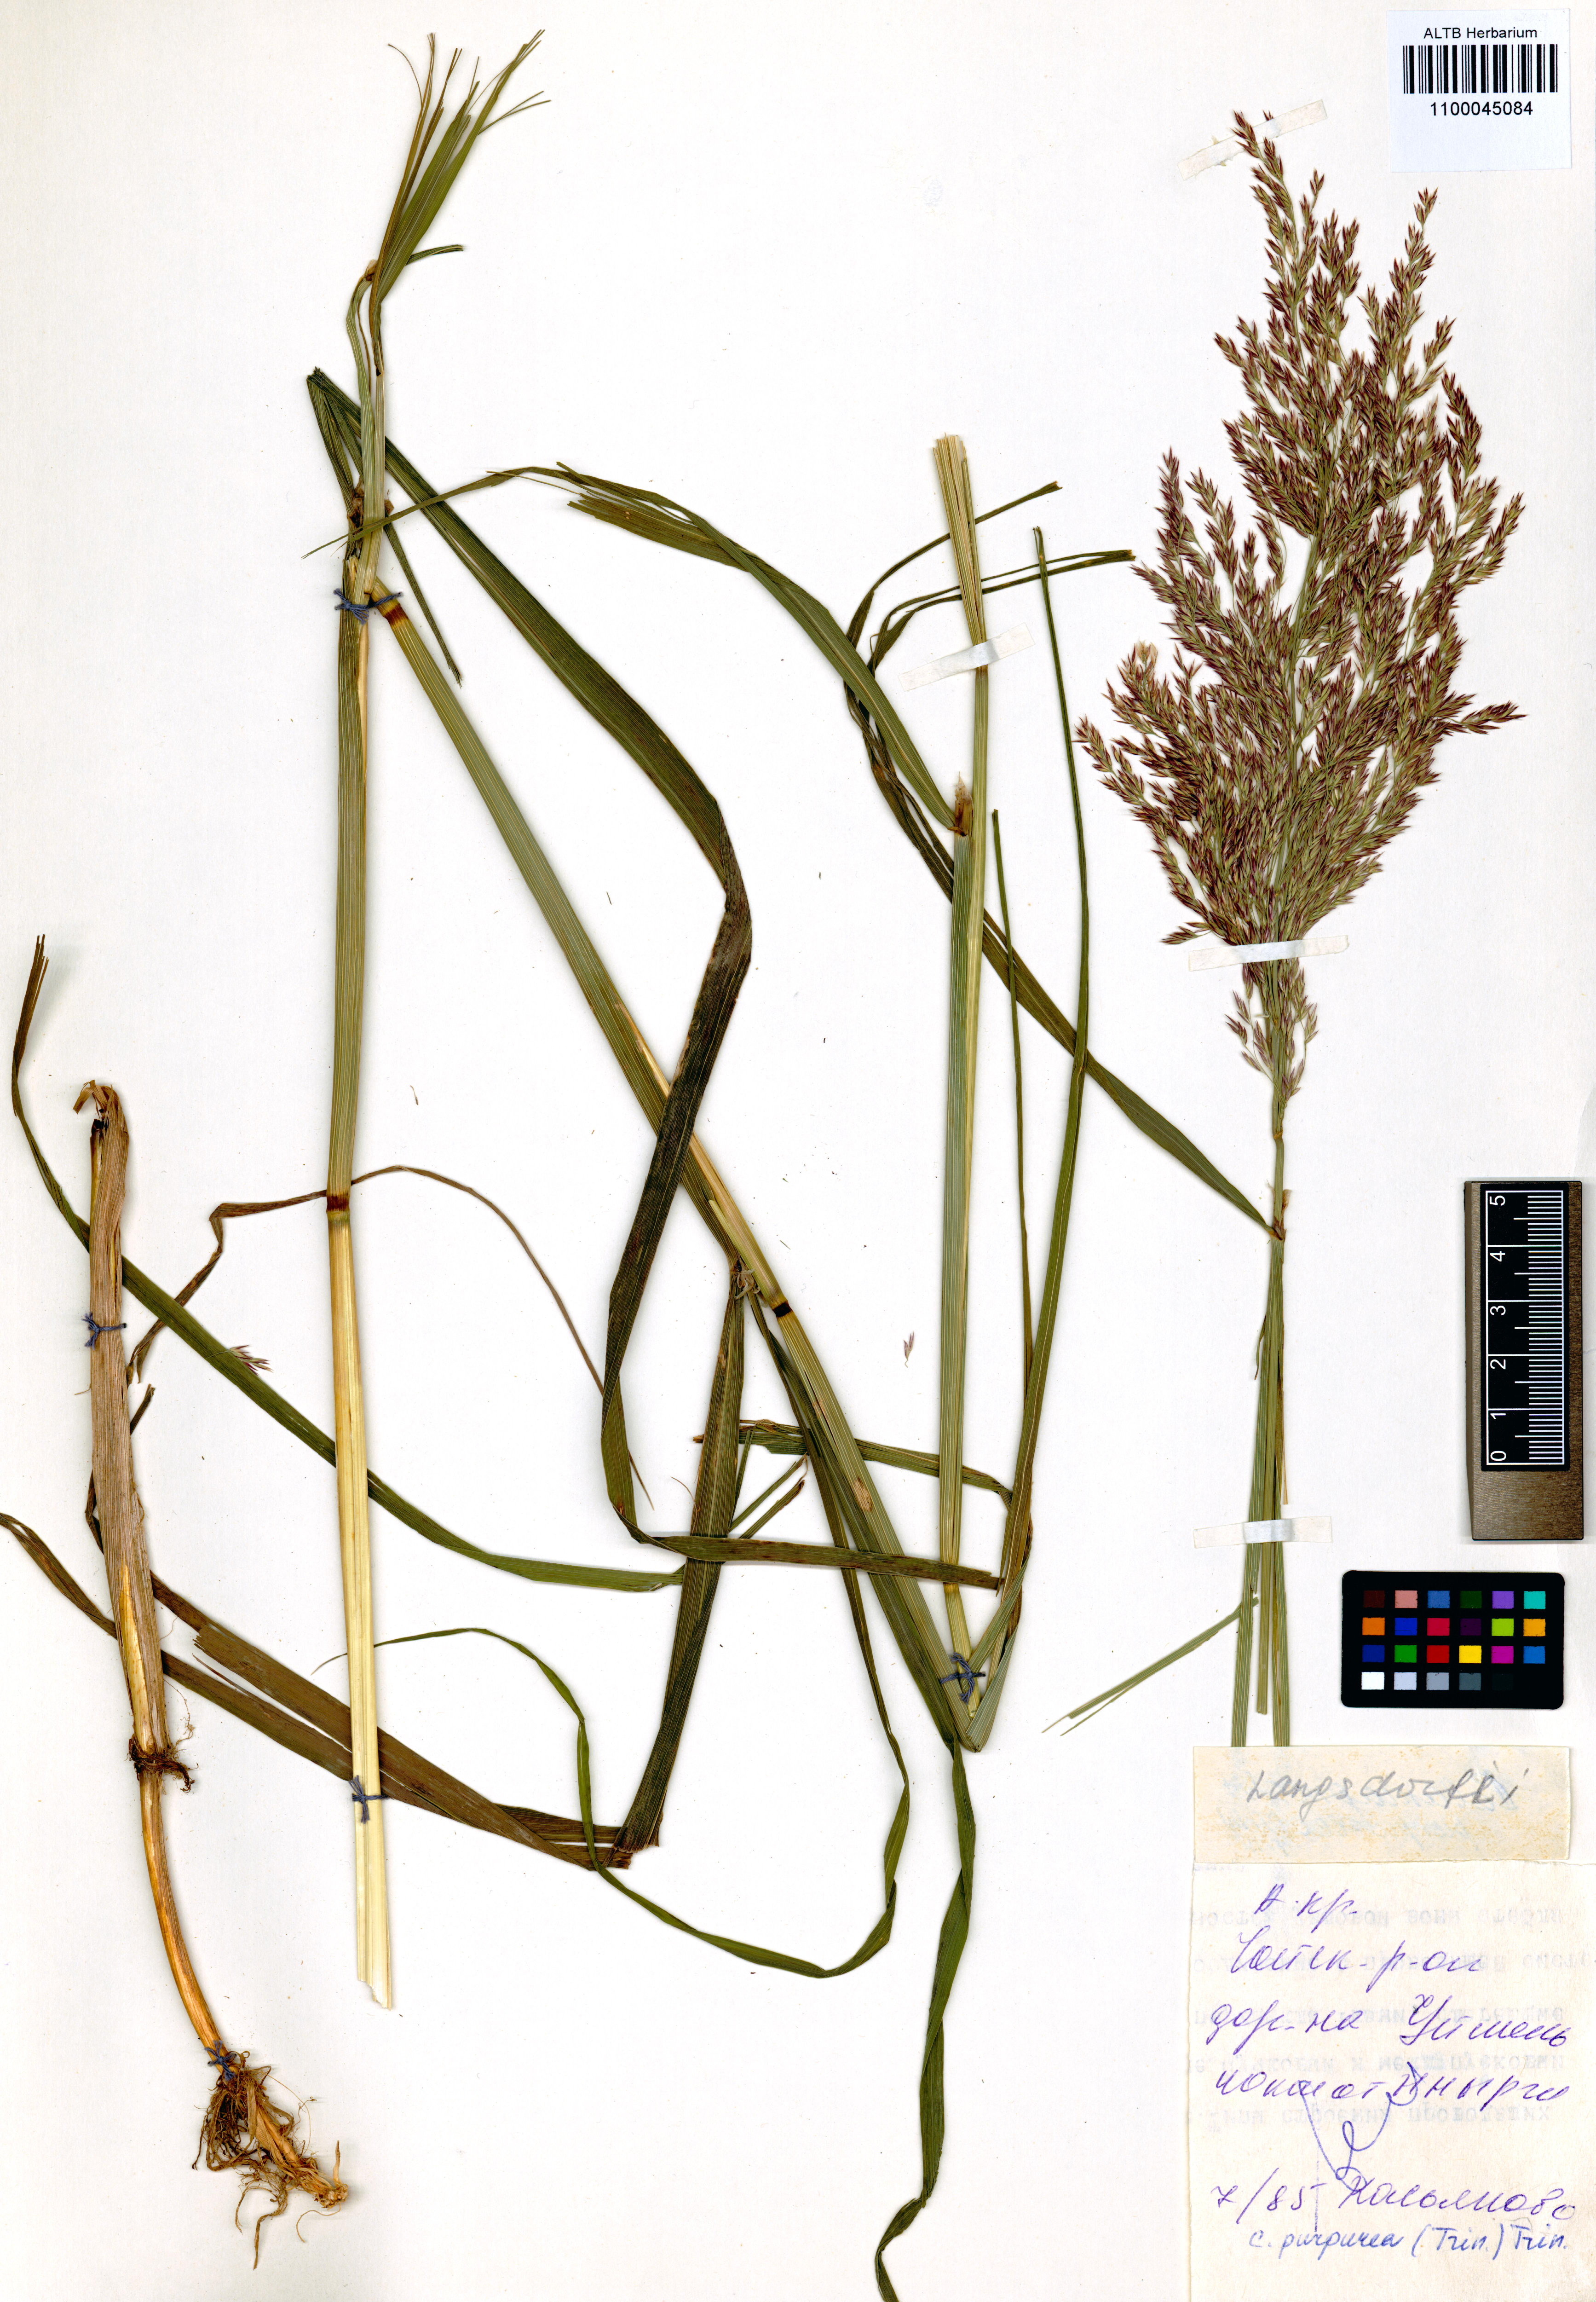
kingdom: Plantae
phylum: Tracheophyta
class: Liliopsida
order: Poales
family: Poaceae
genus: Calamagrostis
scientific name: Calamagrostis purpurea
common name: Scandinavian small-reed
